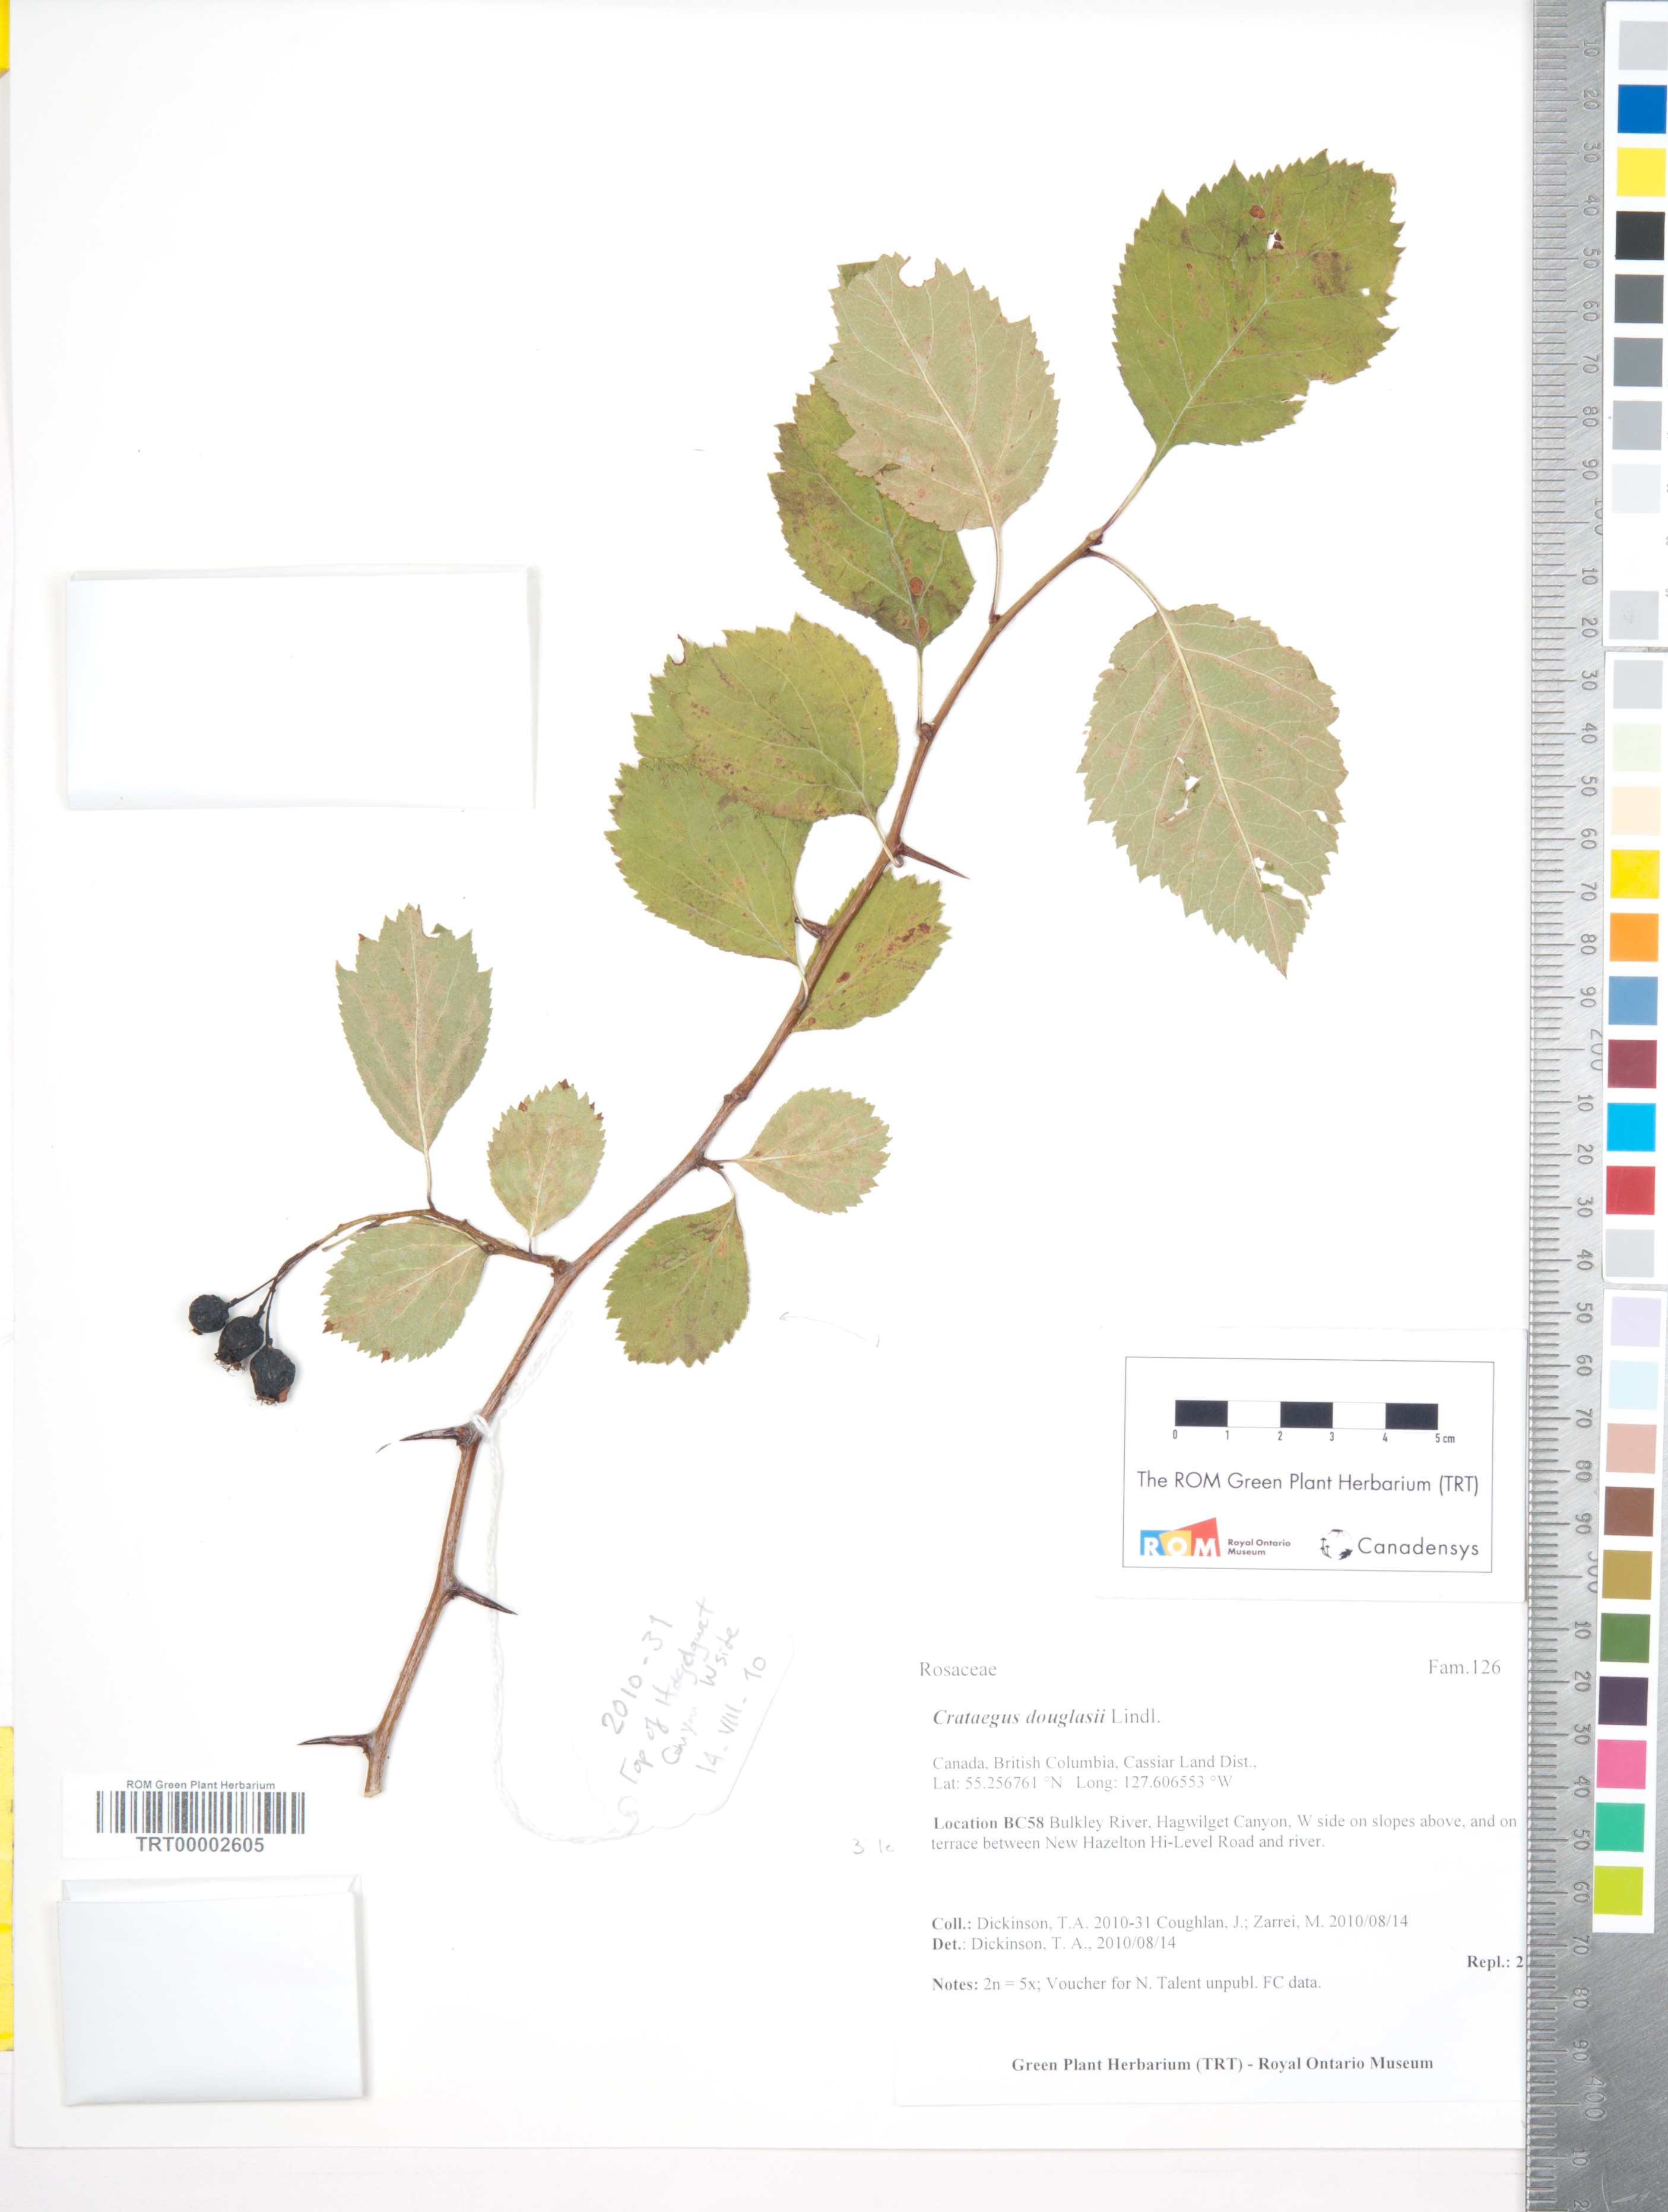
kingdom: Plantae
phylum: Tracheophyta
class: Magnoliopsida
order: Rosales
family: Rosaceae
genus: Crataegus
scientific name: Crataegus douglasii
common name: Black hawthorn
